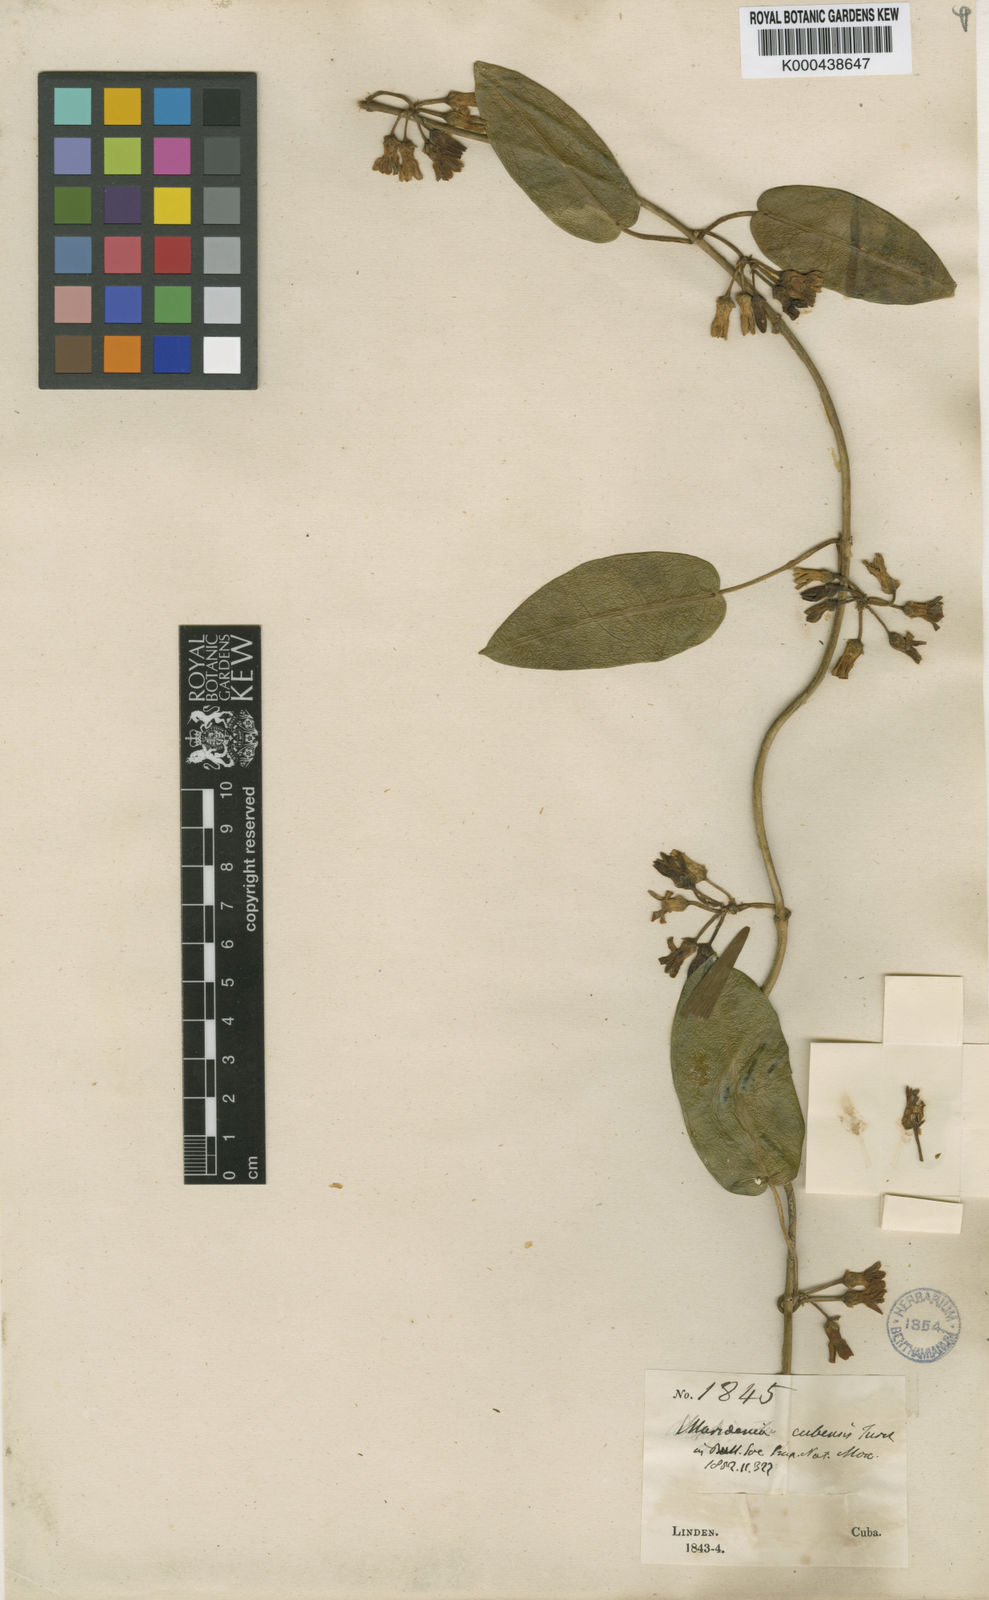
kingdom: Plantae
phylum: Tracheophyta
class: Magnoliopsida
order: Gentianales
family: Apocynaceae
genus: Ruehssia
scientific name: Ruehssia cubensis
